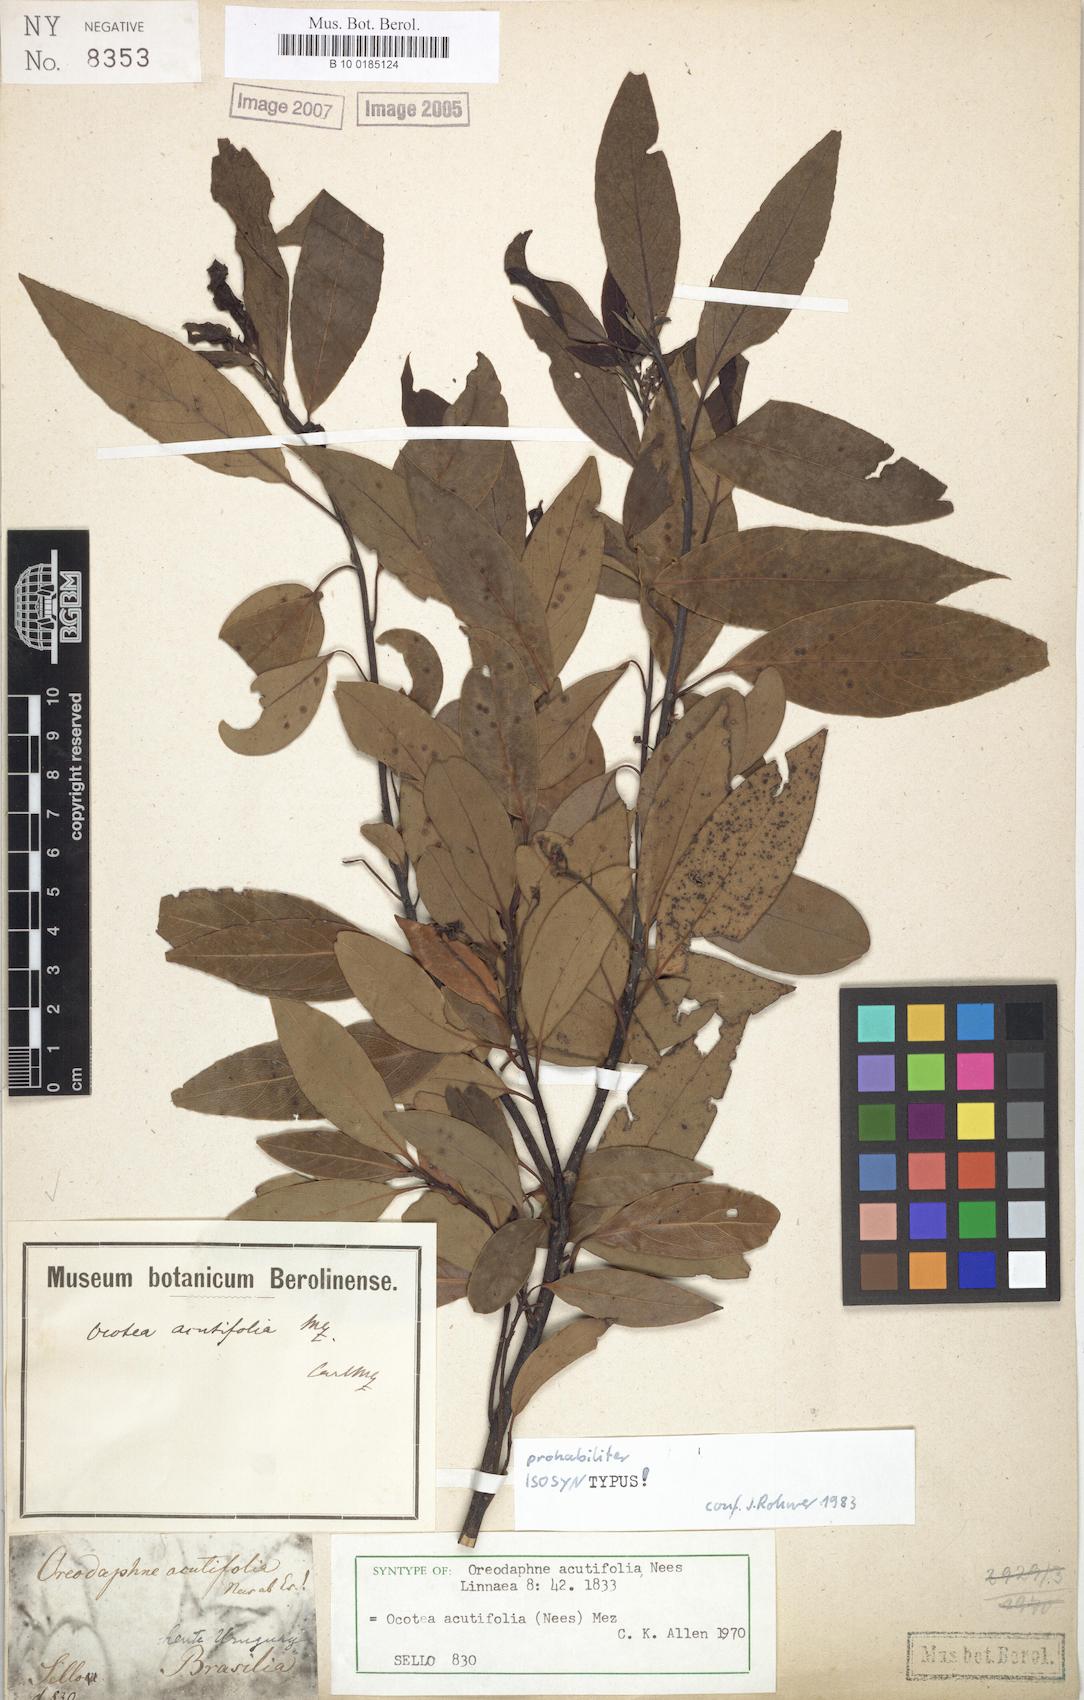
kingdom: Plantae
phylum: Tracheophyta
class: Magnoliopsida
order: Laurales
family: Lauraceae
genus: Ocotea
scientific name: Ocotea acutifolia
